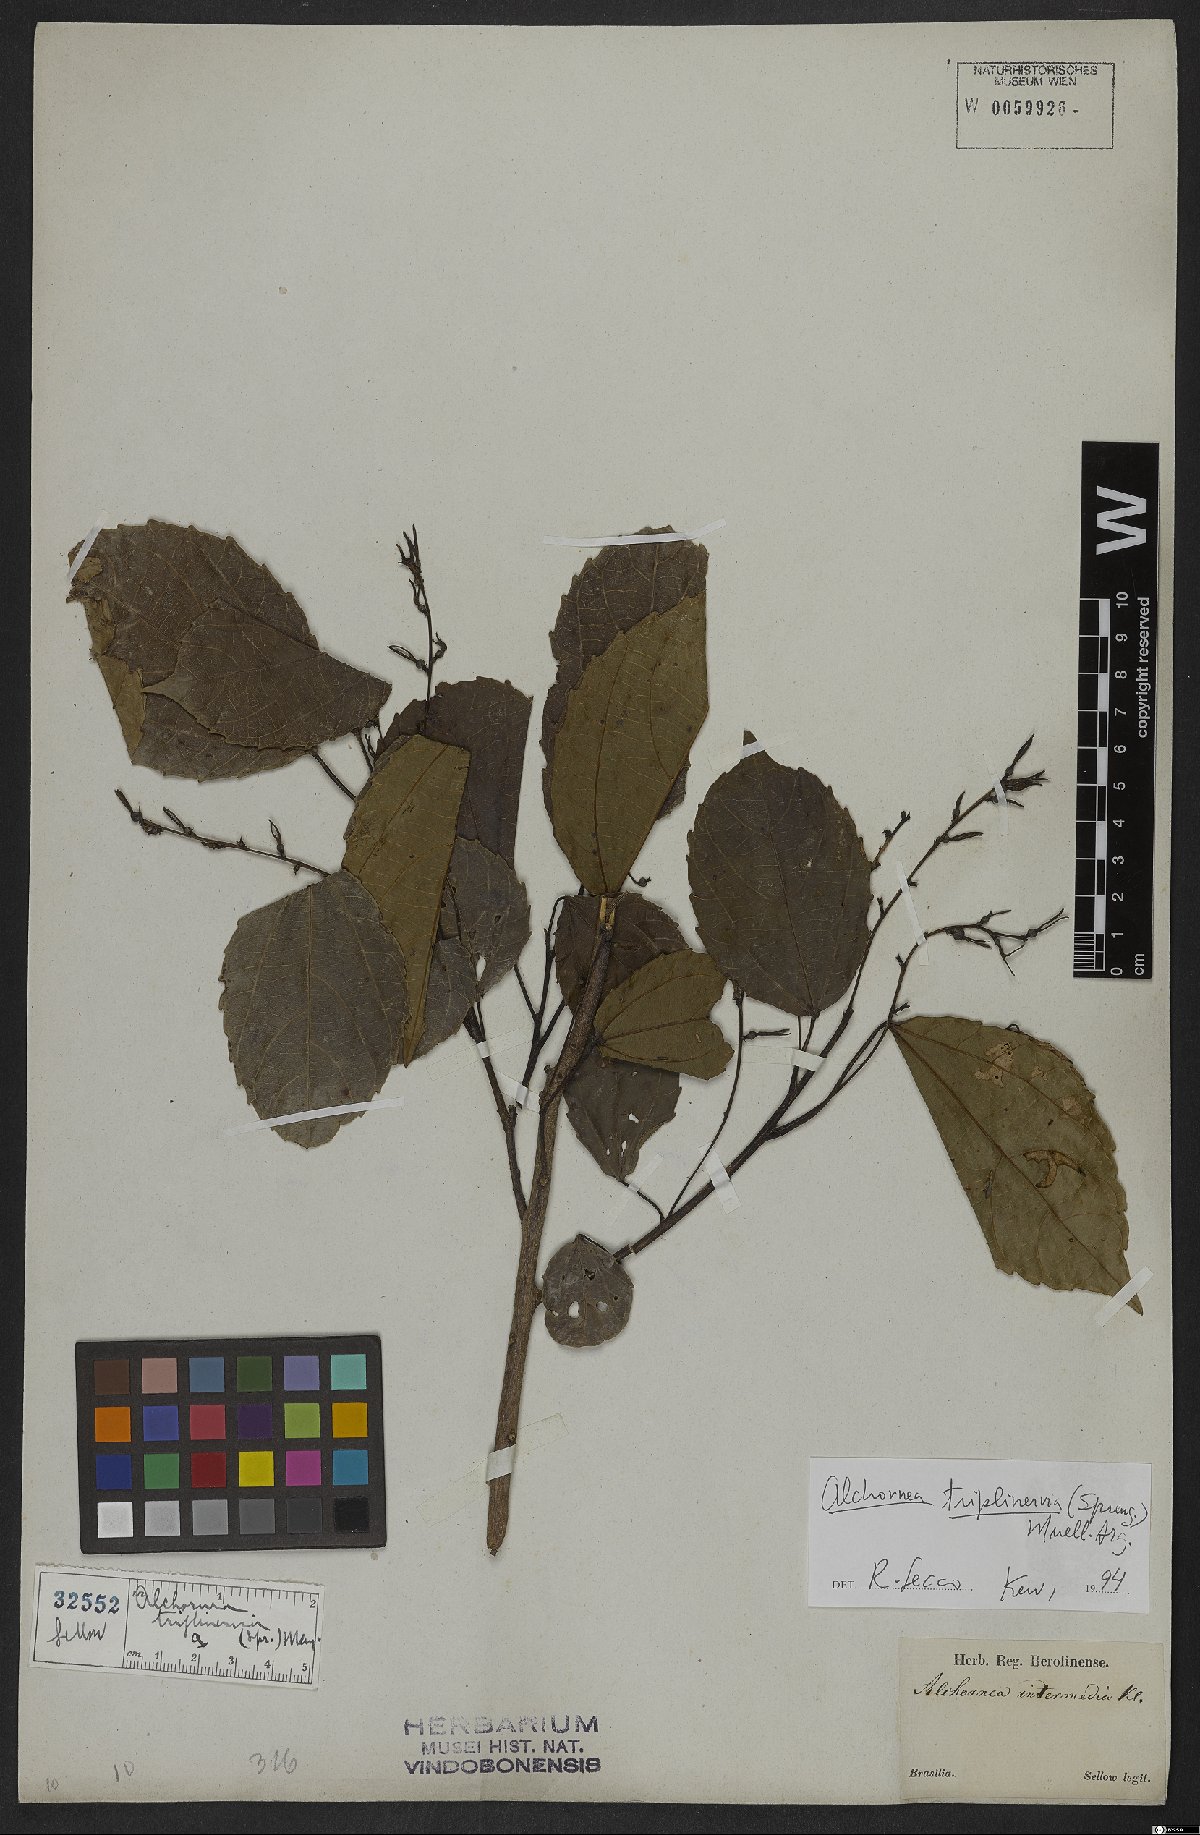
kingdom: Plantae
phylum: Tracheophyta
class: Magnoliopsida
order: Malpighiales
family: Euphorbiaceae
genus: Alchornea
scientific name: Alchornea triplinervia
